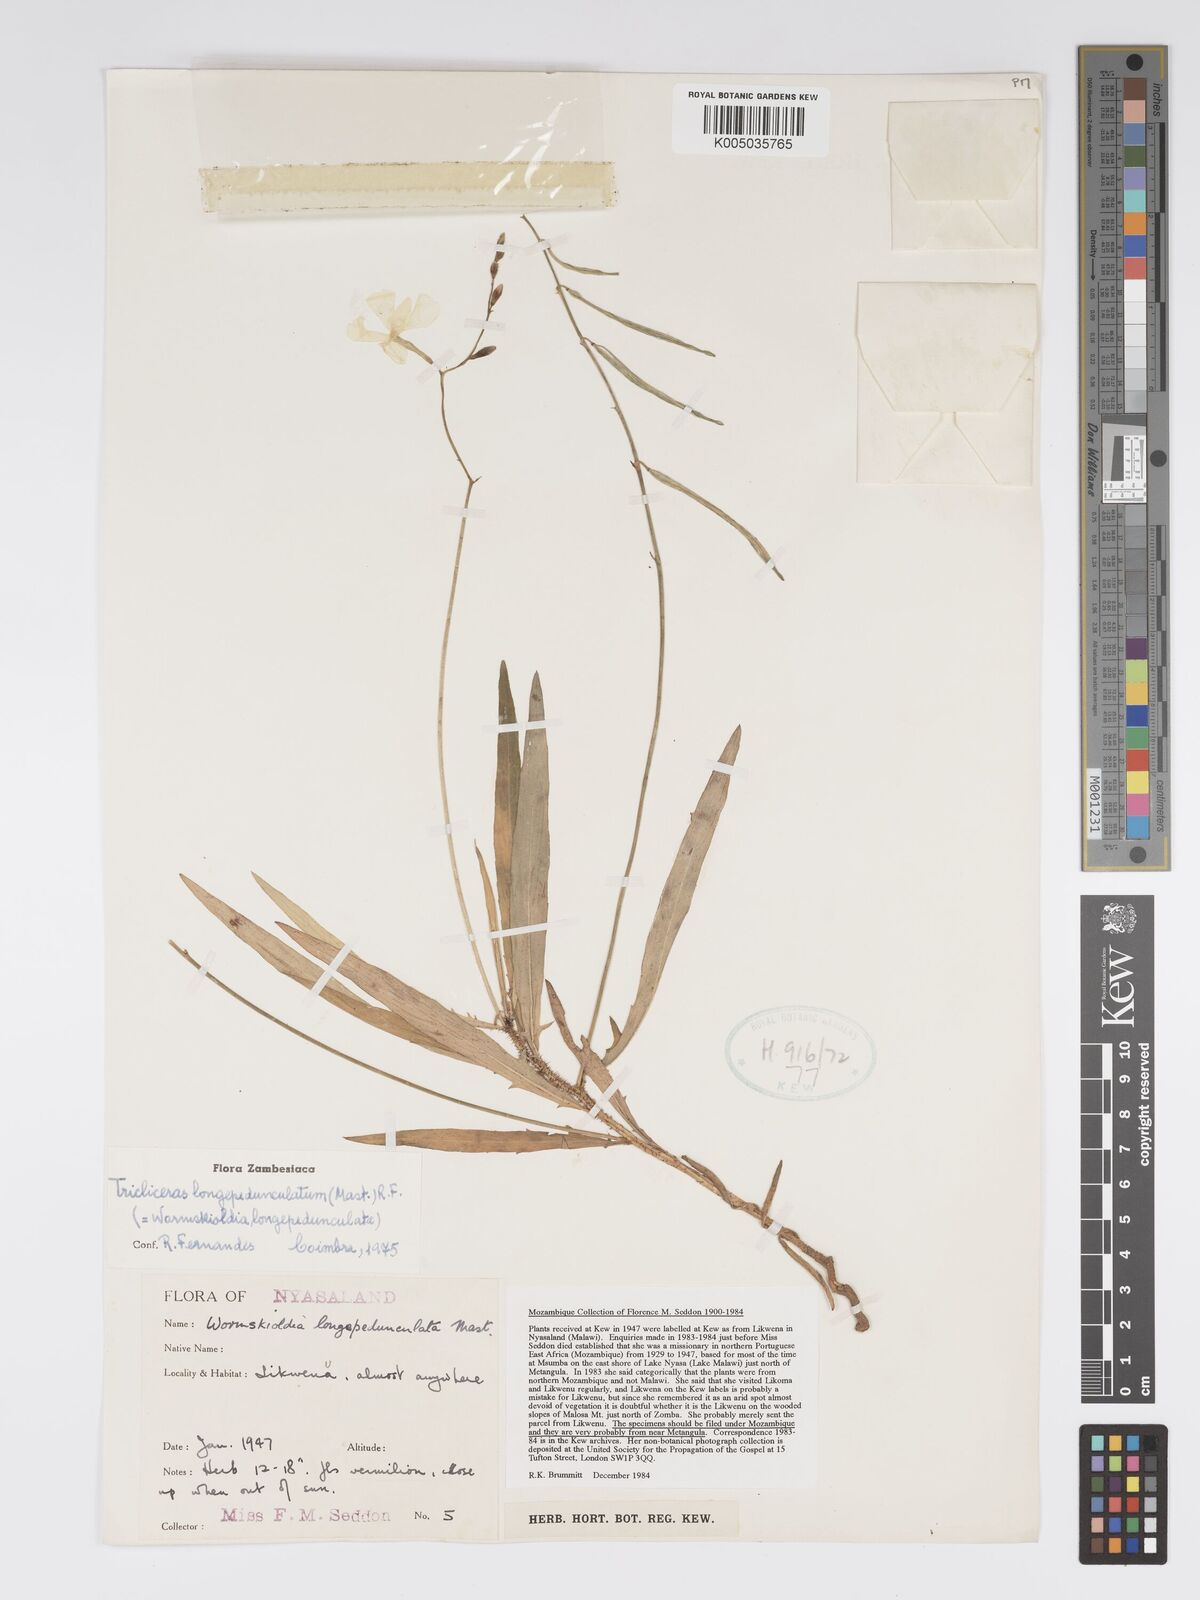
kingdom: Plantae
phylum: Tracheophyta
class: Magnoliopsida
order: Malpighiales
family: Turneraceae
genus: Tricliceras
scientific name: Tricliceras longepedunculatum
